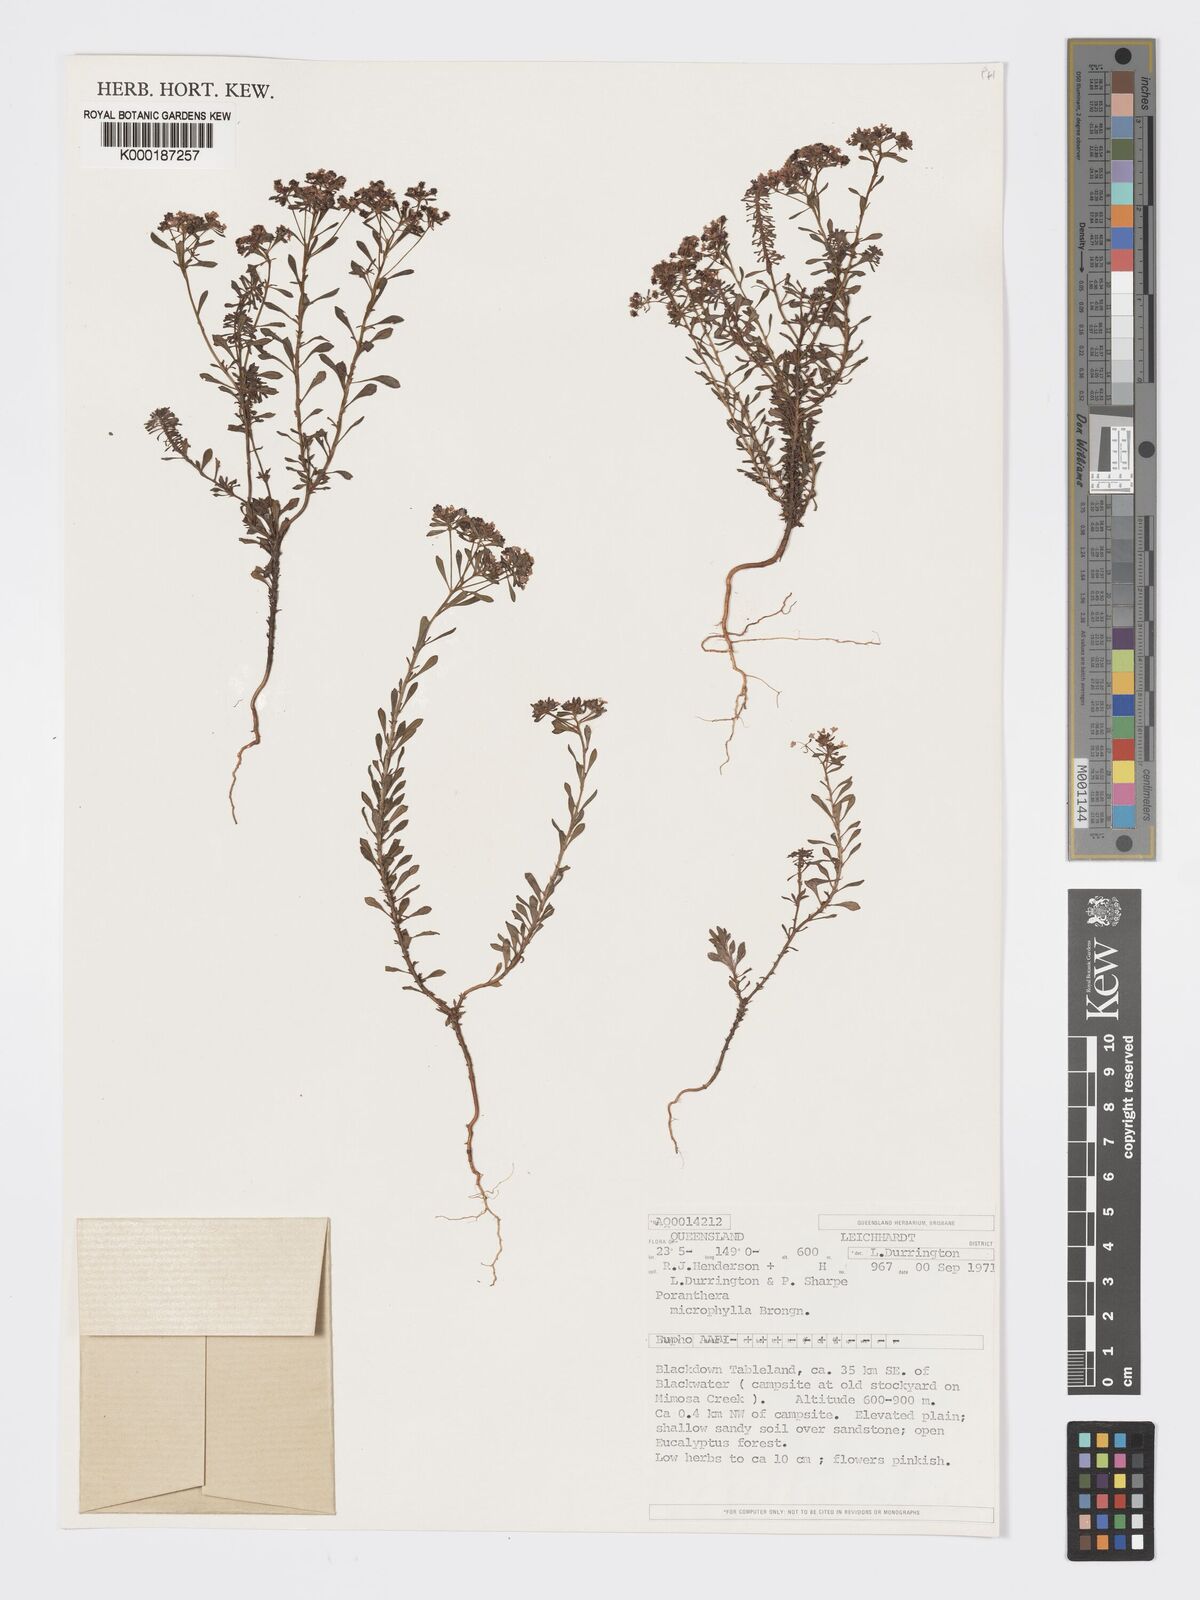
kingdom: Plantae
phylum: Tracheophyta
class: Magnoliopsida
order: Malpighiales
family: Phyllanthaceae
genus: Poranthera
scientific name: Poranthera microphylla
